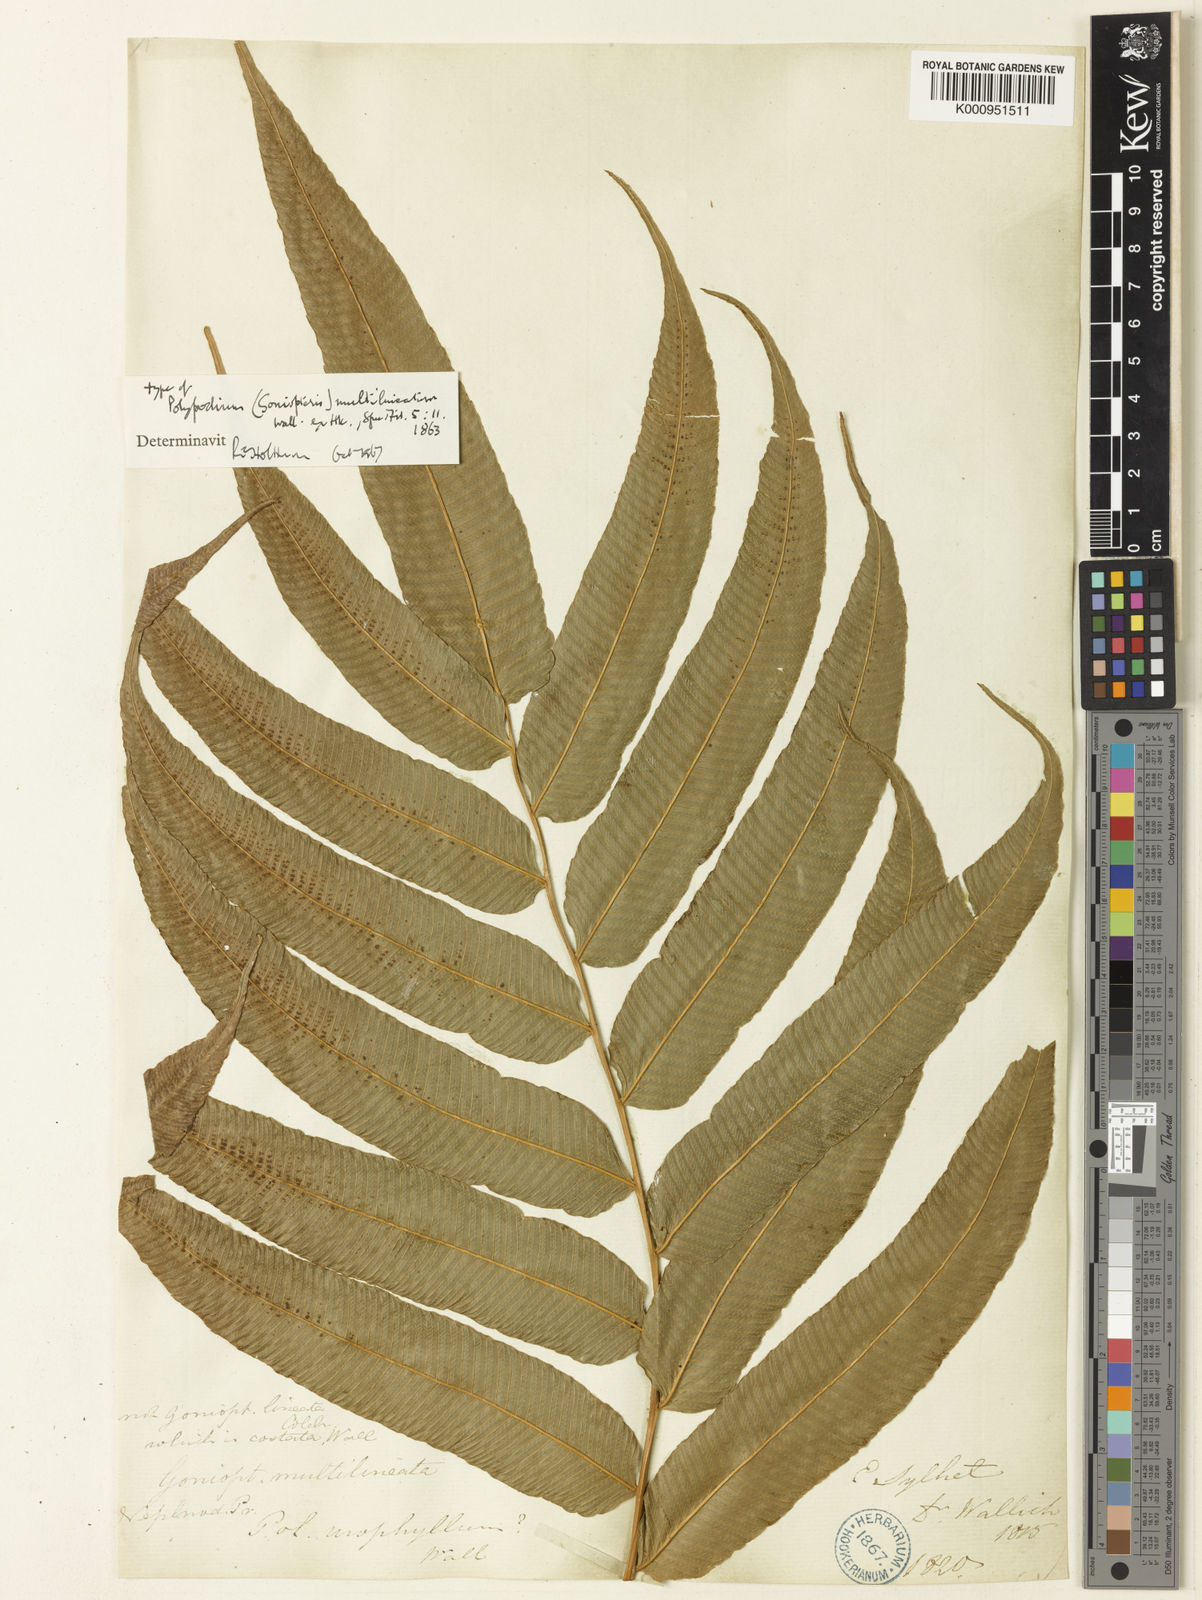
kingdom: Plantae
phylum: Tracheophyta
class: Polypodiopsida
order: Polypodiales
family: Thelypteridaceae
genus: Abacopteris
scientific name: Abacopteris nudata
